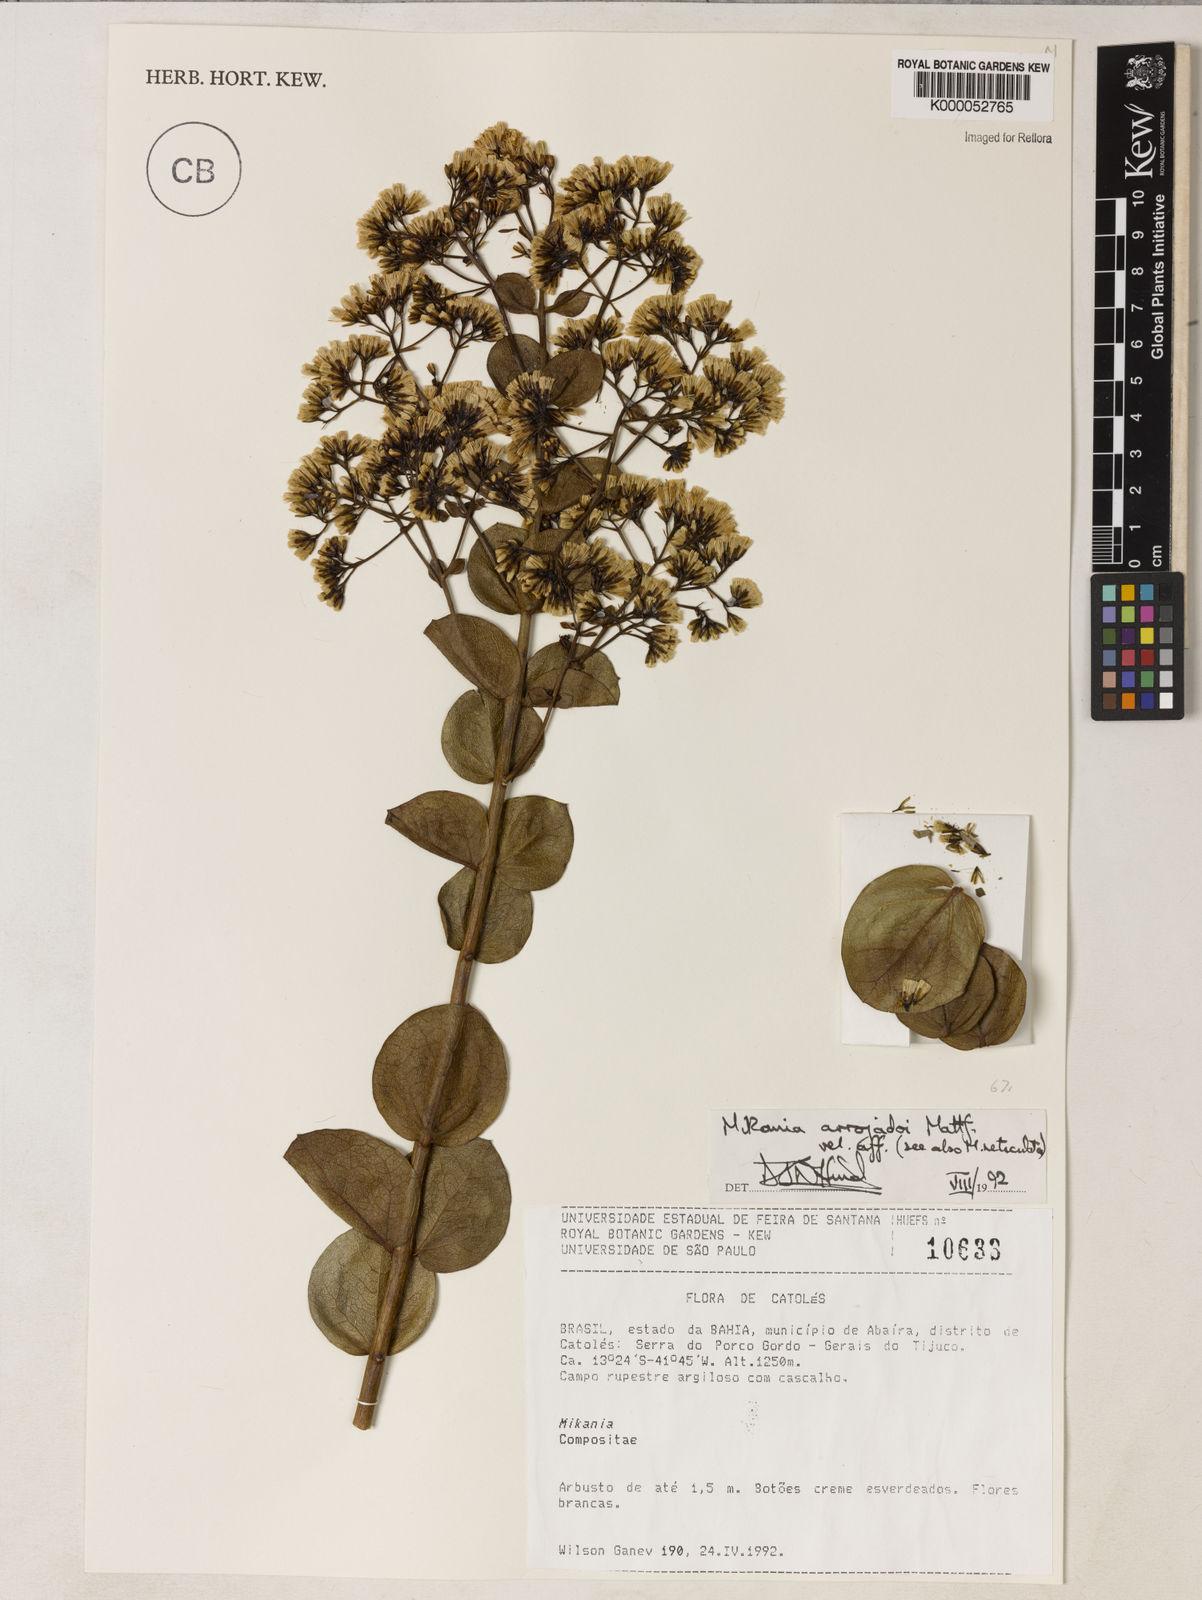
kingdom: Plantae
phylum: Tracheophyta
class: Magnoliopsida
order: Asterales
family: Asteraceae
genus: Mikania
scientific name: Mikania arrojadoi
